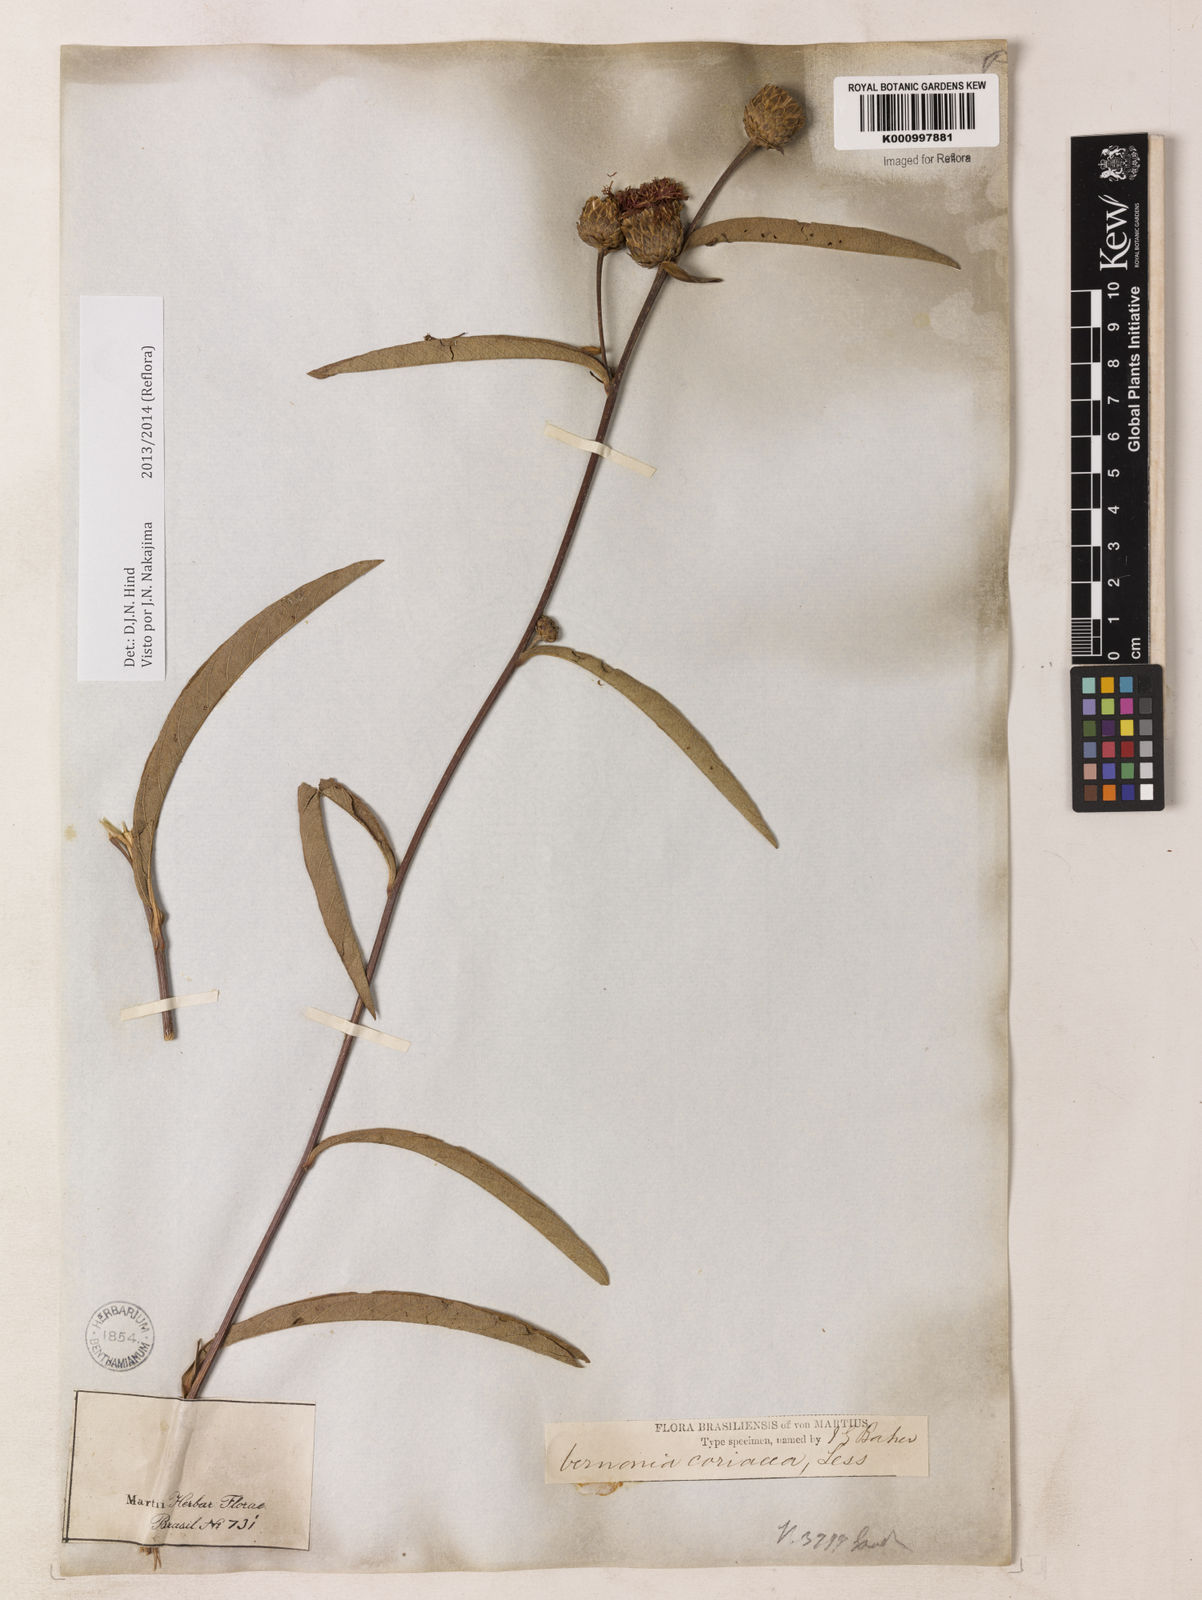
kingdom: Plantae
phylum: Tracheophyta
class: Magnoliopsida
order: Asterales
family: Asteraceae
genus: Lessingianthus
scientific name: Lessingianthus coriaceus
